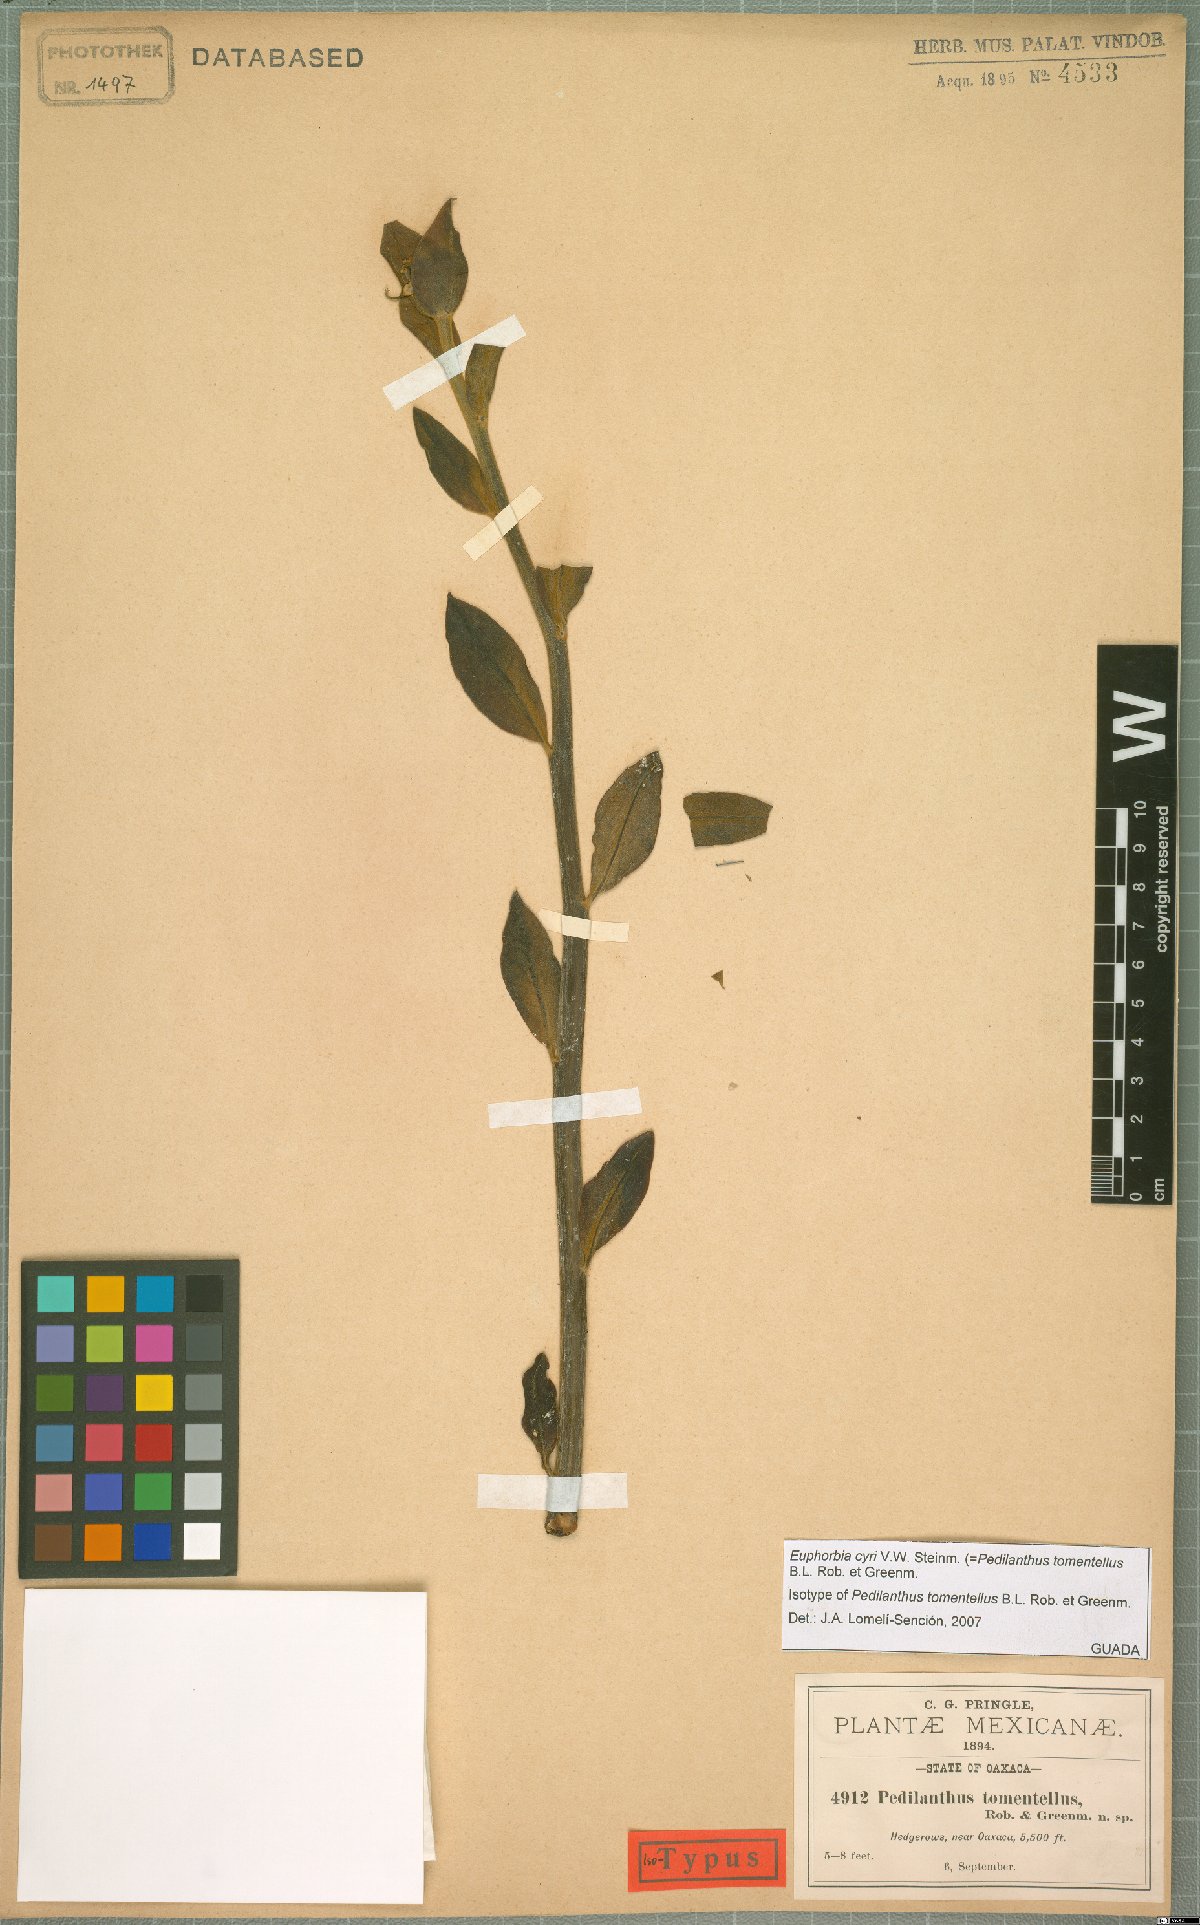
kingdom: Plantae
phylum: Tracheophyta
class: Magnoliopsida
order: Malpighiales
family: Euphorbiaceae
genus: Euphorbia
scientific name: Euphorbia cyri
